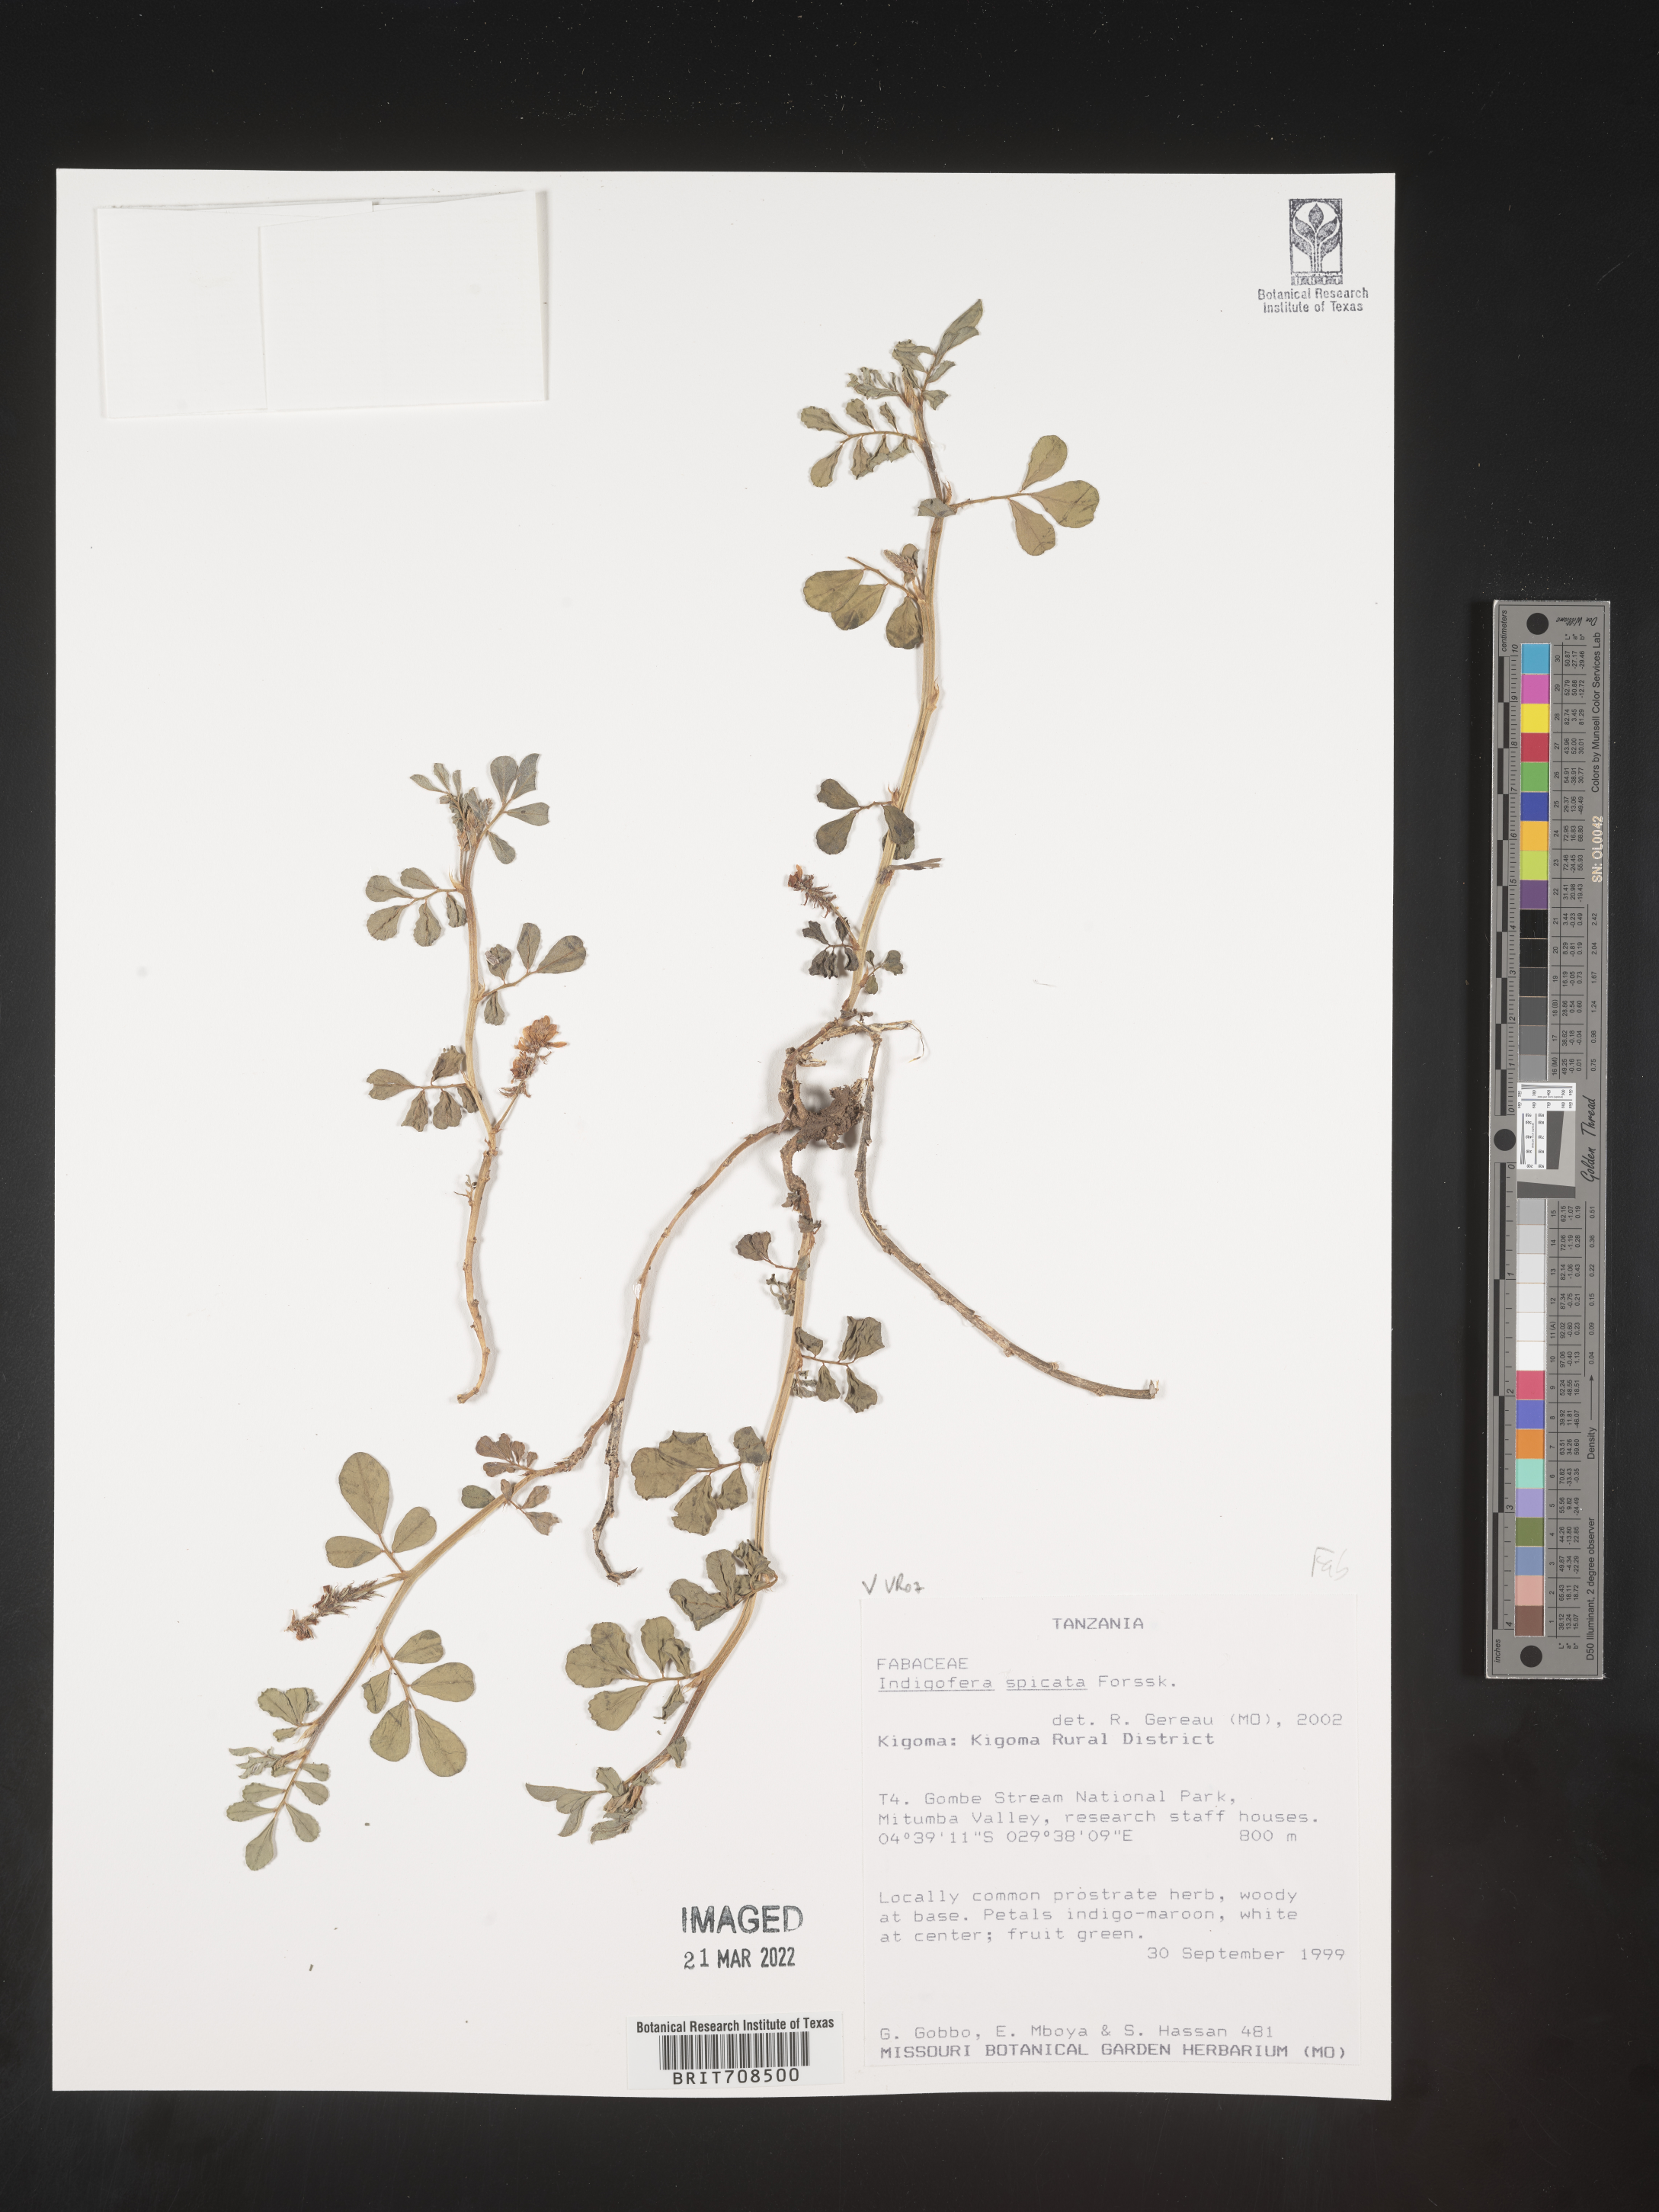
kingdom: Plantae
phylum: Tracheophyta
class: Magnoliopsida
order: Fabales
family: Fabaceae
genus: Indigofera
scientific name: Indigofera
